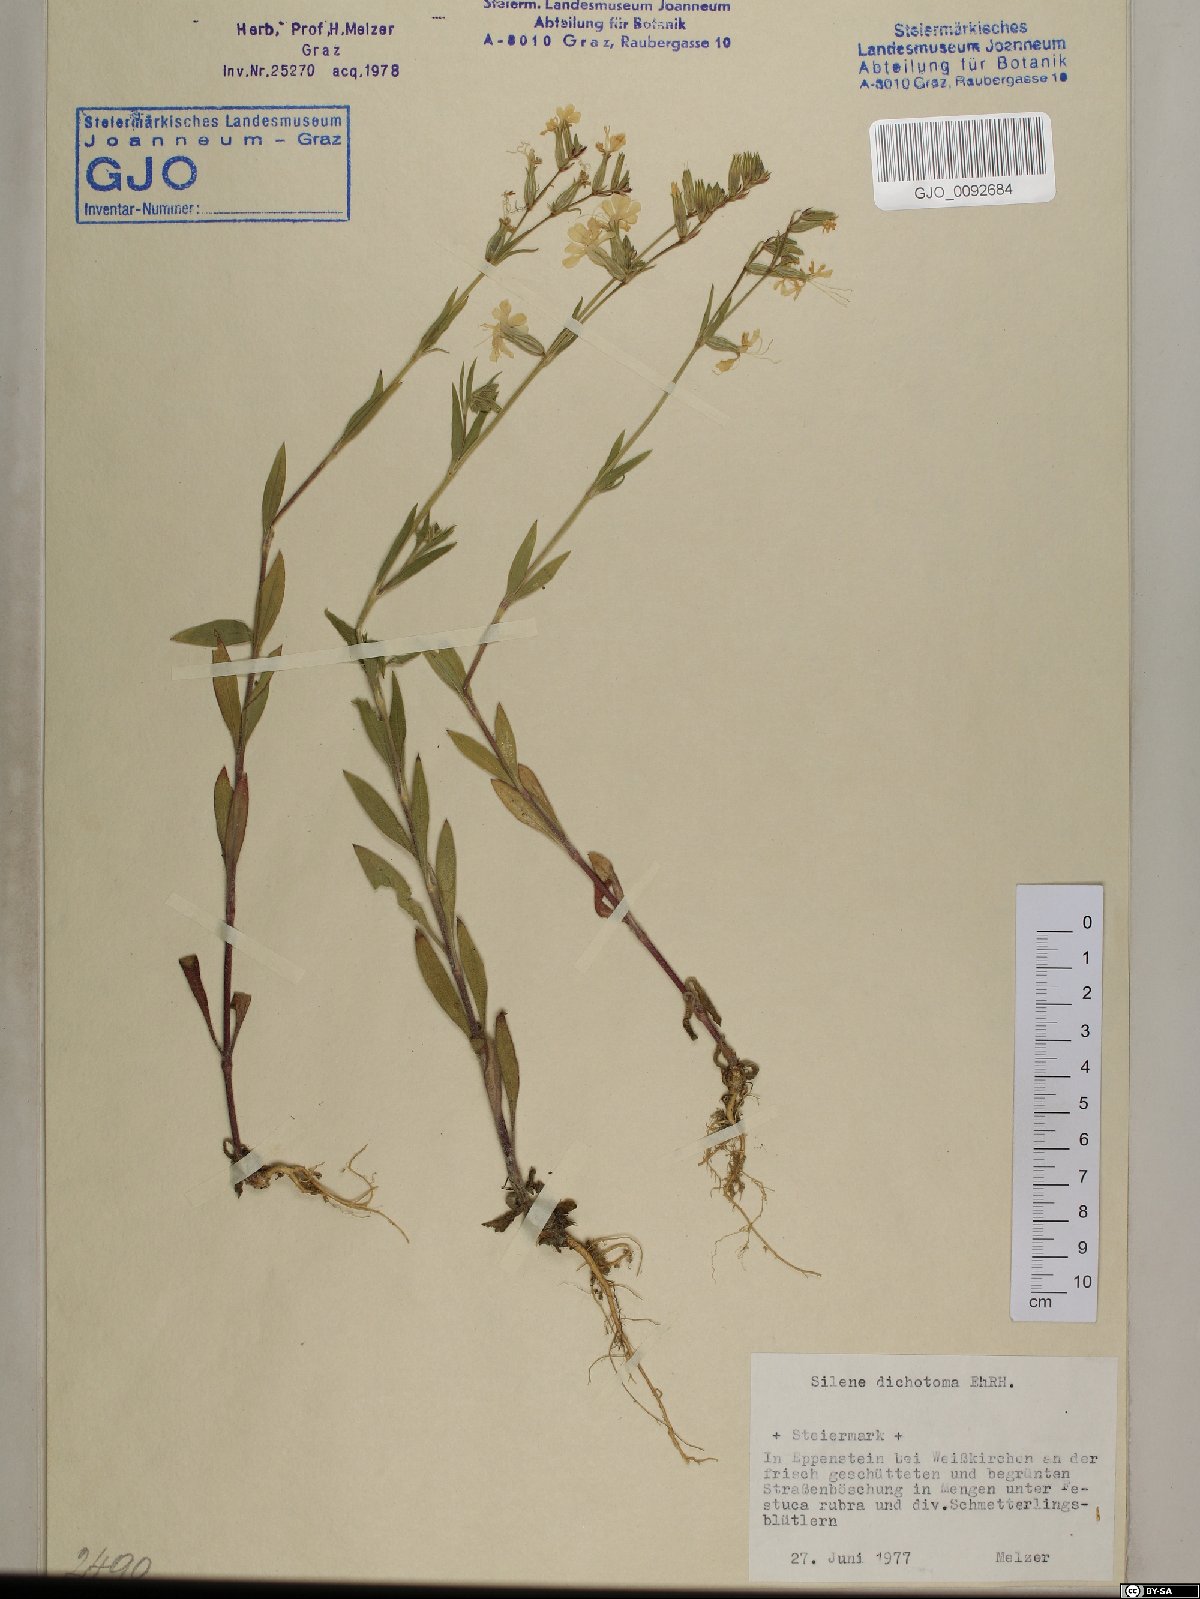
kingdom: Plantae
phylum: Tracheophyta
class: Magnoliopsida
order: Caryophyllales
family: Caryophyllaceae
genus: Silene
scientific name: Silene dichotoma
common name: Forked catchfly
